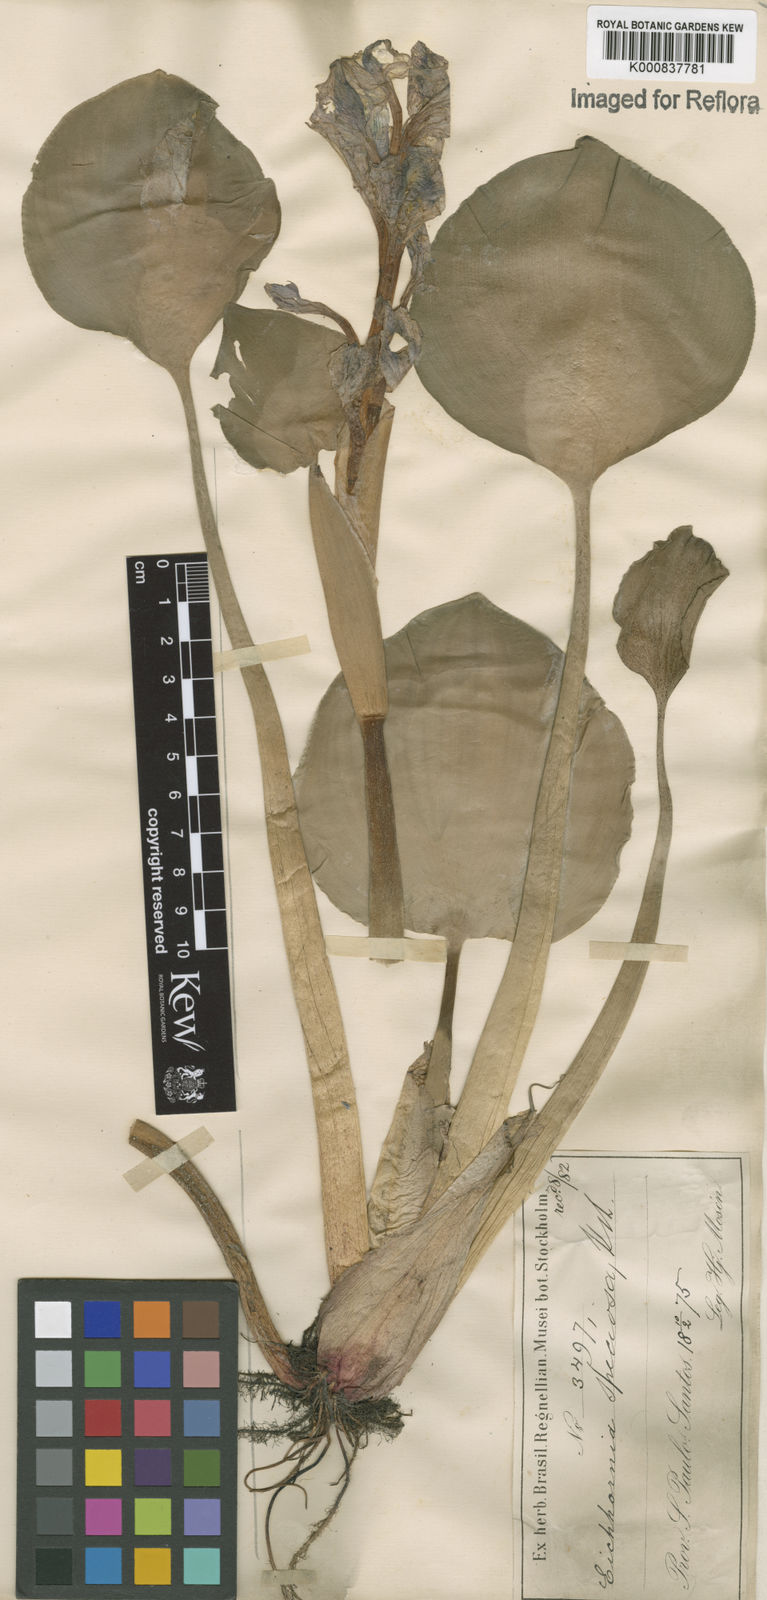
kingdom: Plantae
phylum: Tracheophyta
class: Liliopsida
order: Commelinales
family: Pontederiaceae
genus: Pontederia
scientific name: Pontederia crassipes
